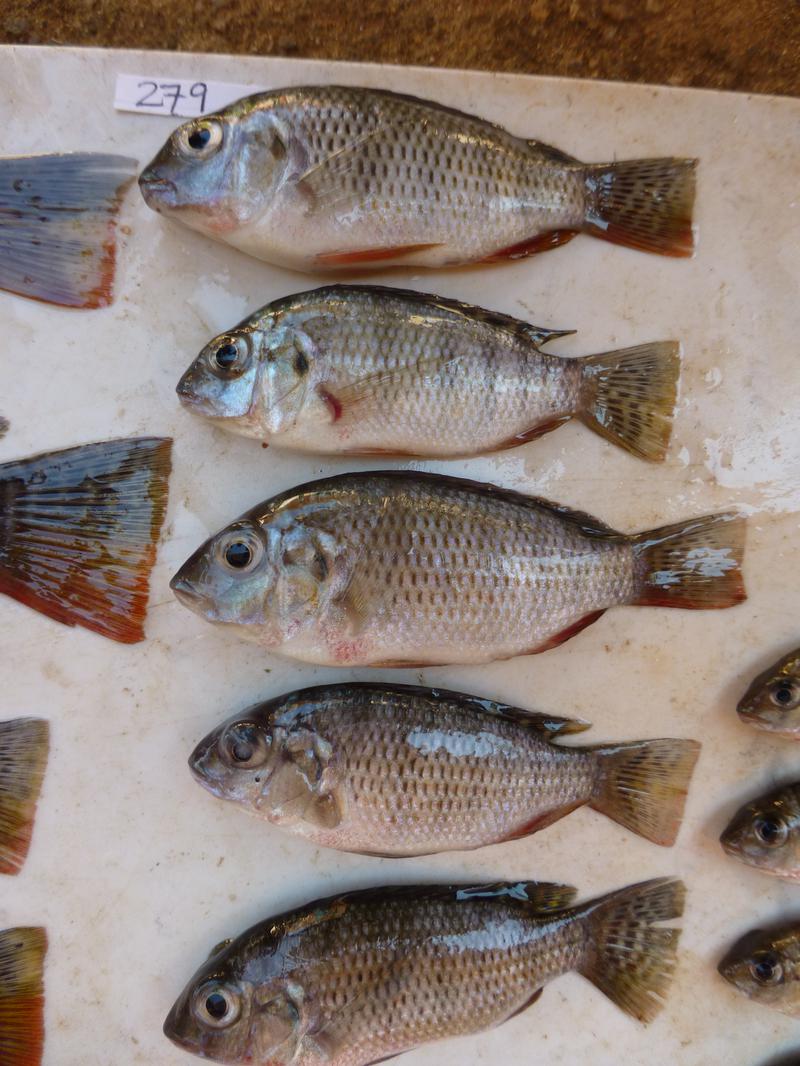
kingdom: Animalia
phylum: Chordata
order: Perciformes
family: Cichlidae
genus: Coptodon
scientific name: Coptodon rendalli
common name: Redbreast tilapia
